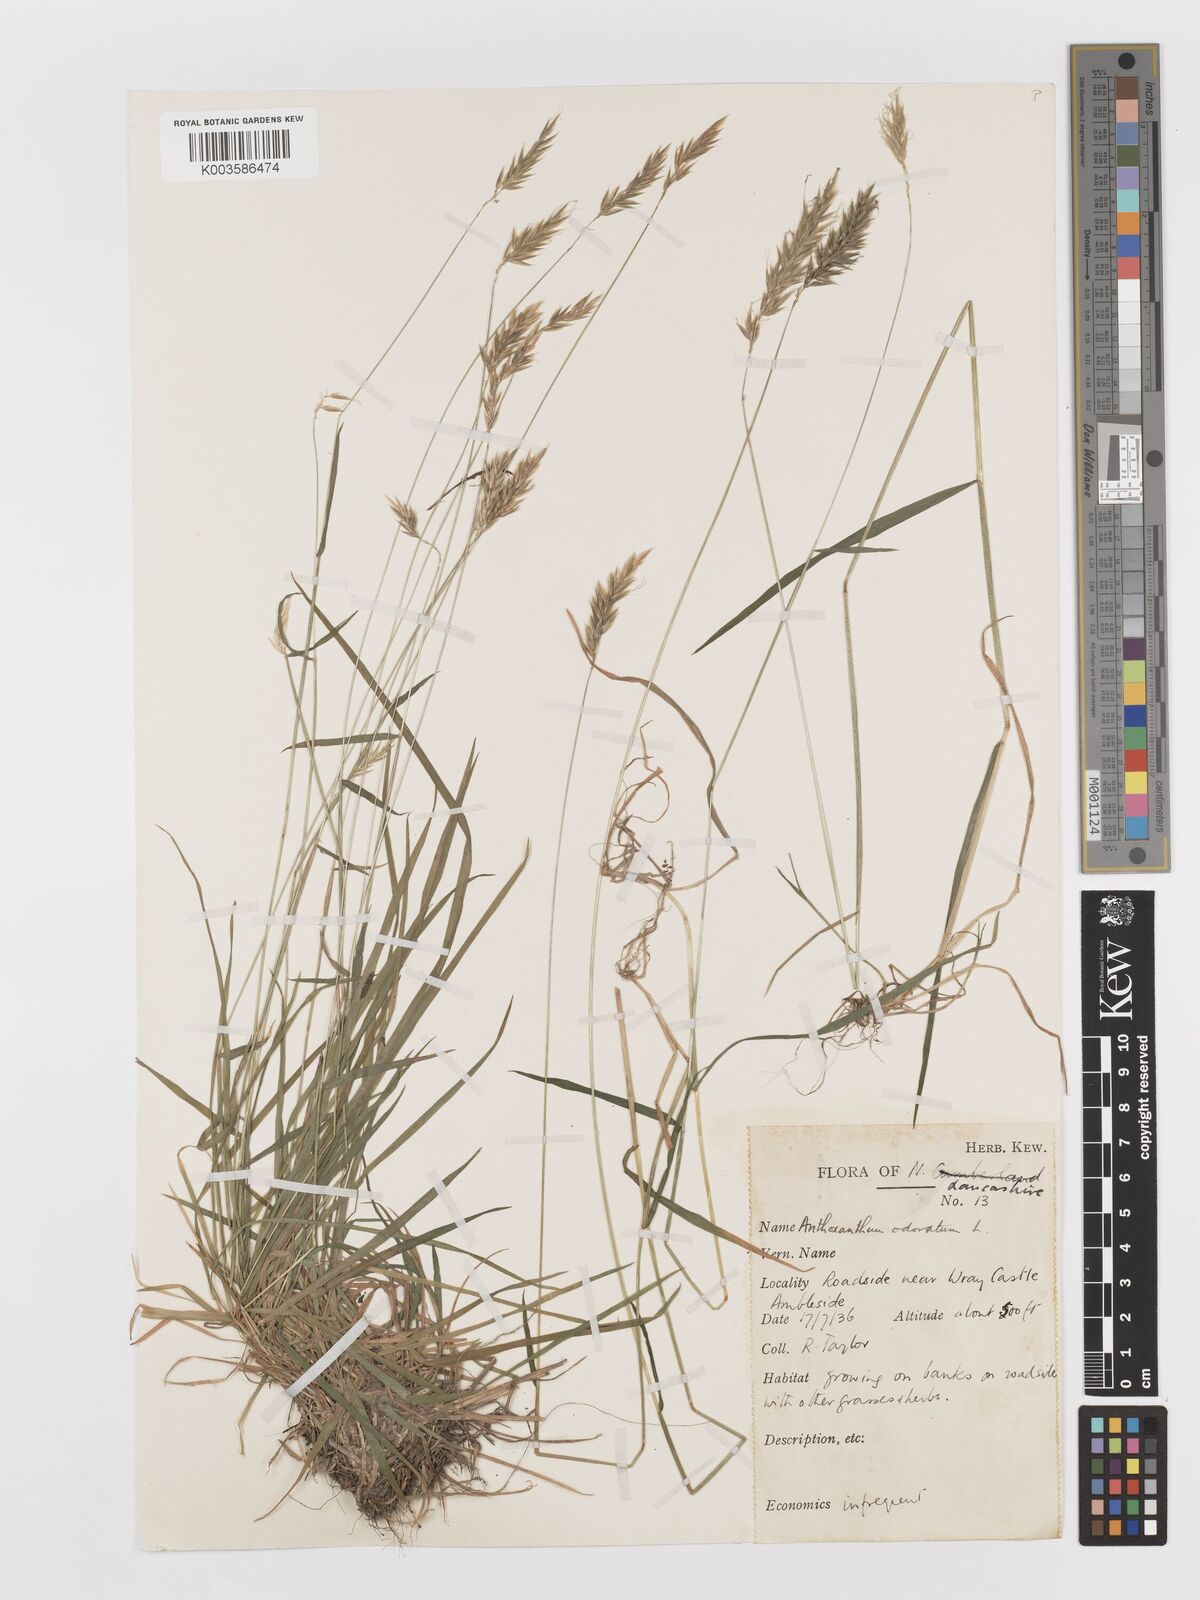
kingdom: Plantae
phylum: Tracheophyta
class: Liliopsida
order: Poales
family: Poaceae
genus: Anthoxanthum
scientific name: Anthoxanthum odoratum
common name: Sweet vernalgrass
